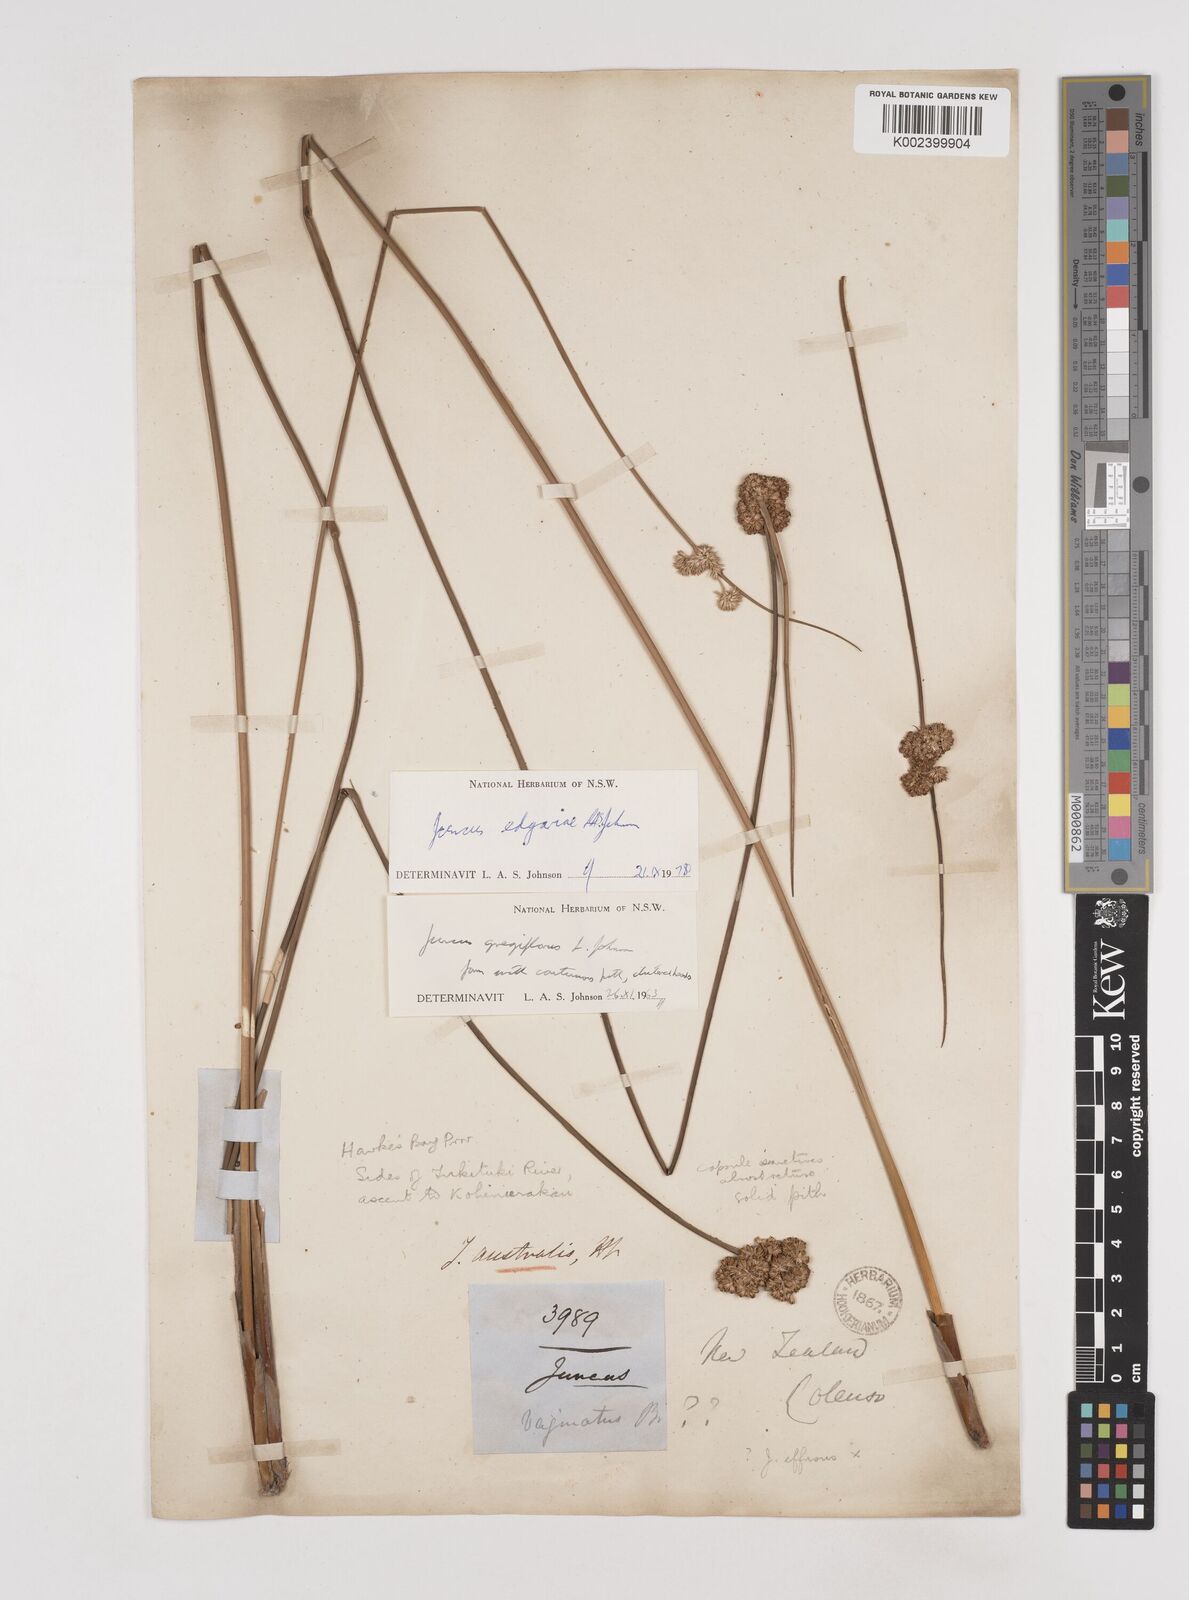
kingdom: Plantae
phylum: Tracheophyta
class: Liliopsida
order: Poales
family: Juncaceae
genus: Juncus
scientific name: Juncus edgariae
